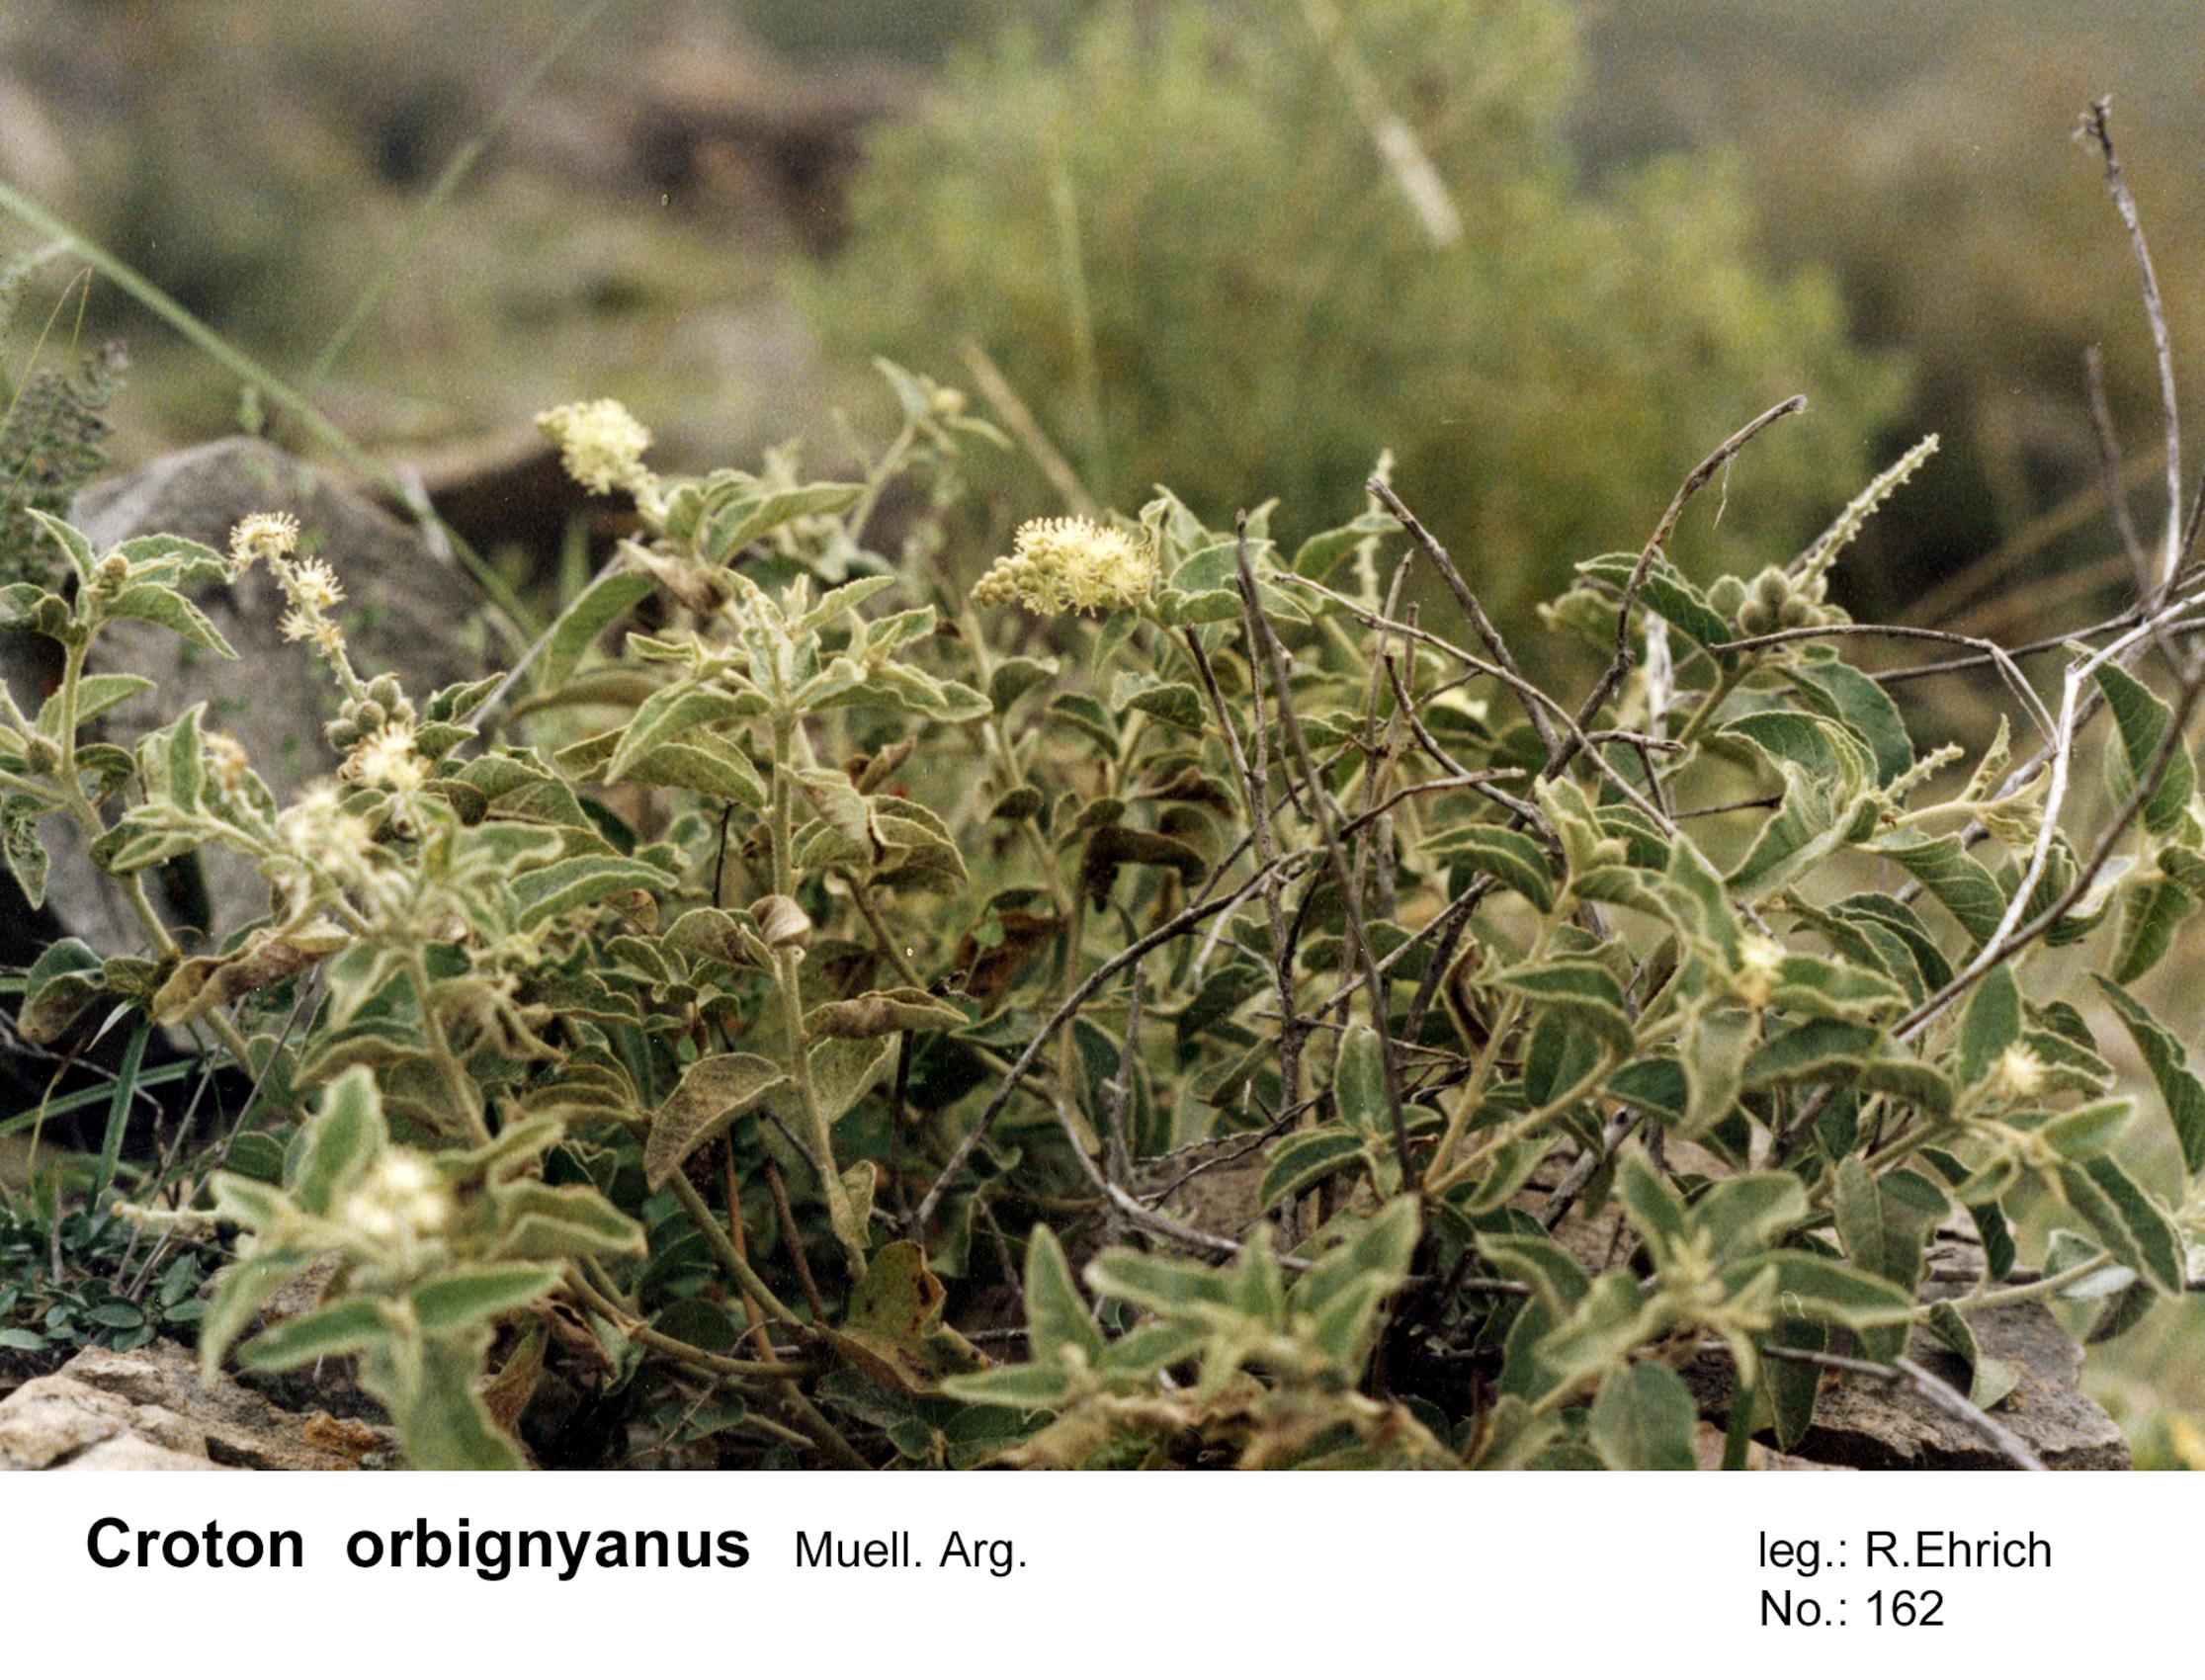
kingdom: Plantae
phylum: Tracheophyta
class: Magnoliopsida
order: Malpighiales
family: Euphorbiaceae
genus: Croton
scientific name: Croton orbignyanus
